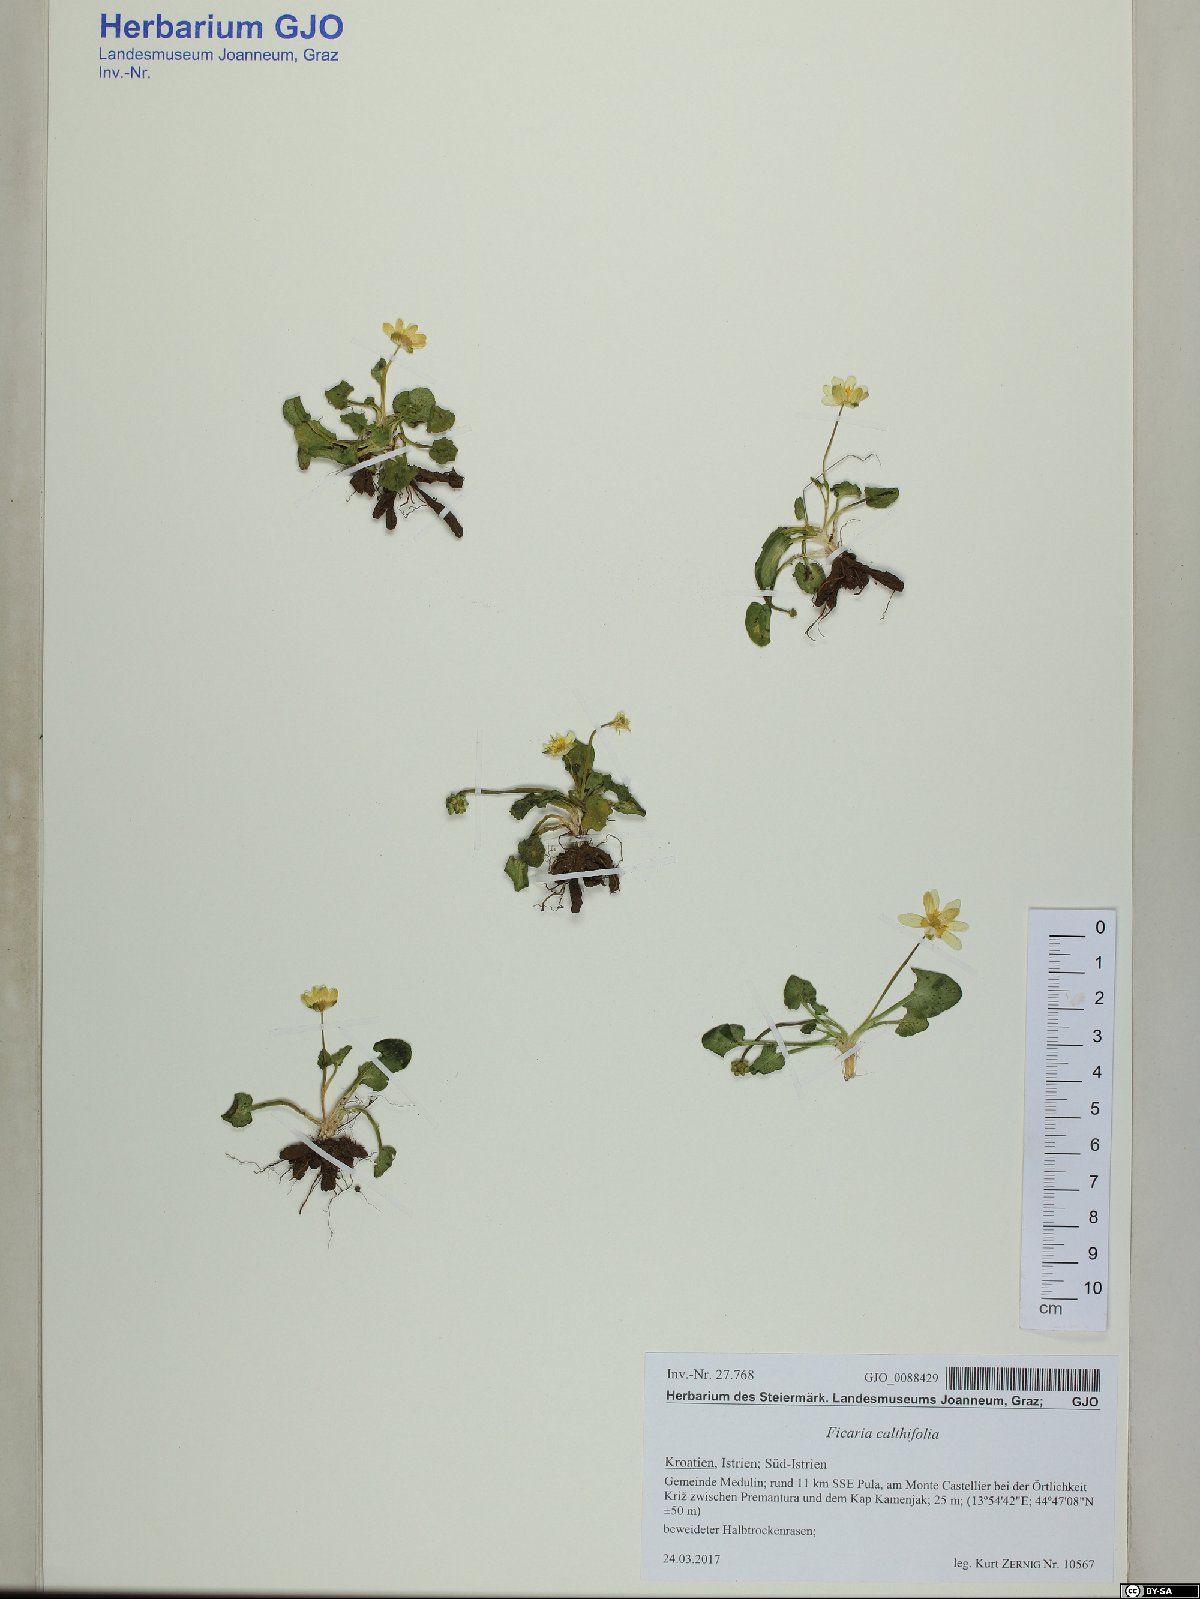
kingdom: Plantae
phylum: Tracheophyta
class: Magnoliopsida
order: Ranunculales
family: Ranunculaceae
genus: Ficaria
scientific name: Ficaria calthifolia
